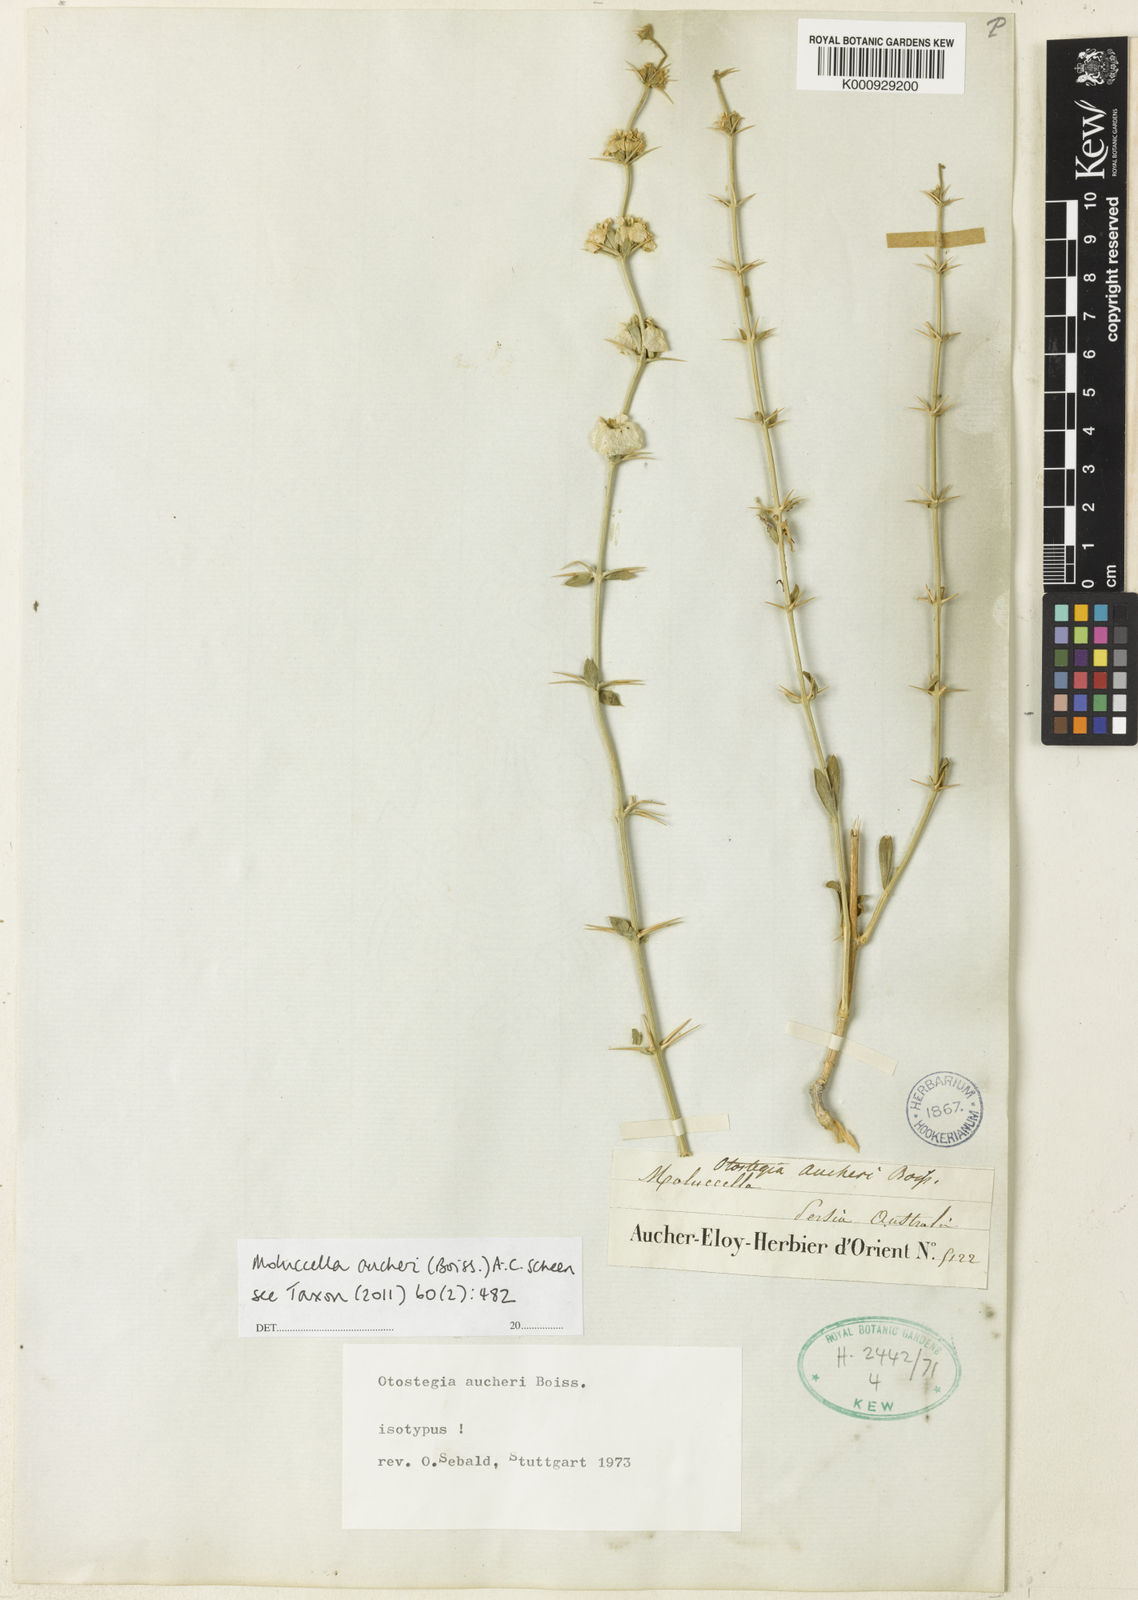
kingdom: Plantae
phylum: Tracheophyta
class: Magnoliopsida
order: Lamiales
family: Lamiaceae
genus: Moluccella
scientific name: Moluccella aucheri
